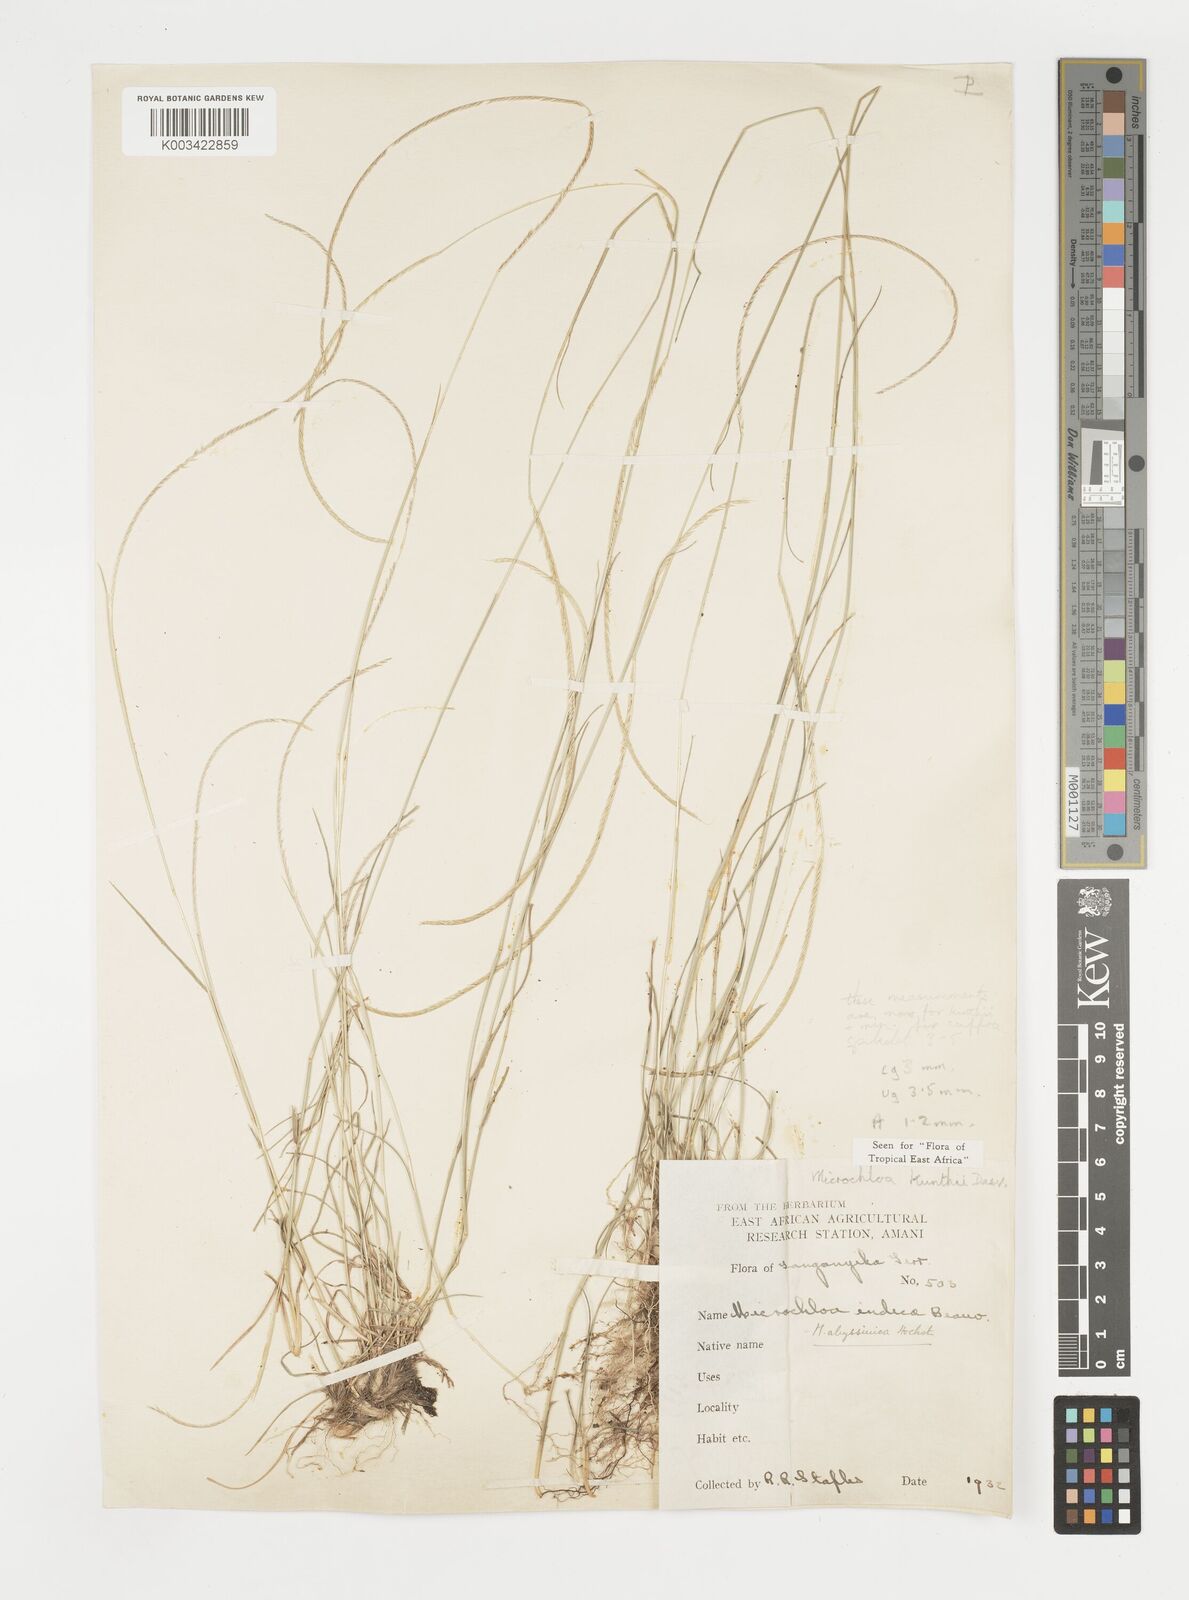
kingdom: Plantae
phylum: Tracheophyta
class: Liliopsida
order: Poales
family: Poaceae
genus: Microchloa
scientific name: Microchloa kunthii
